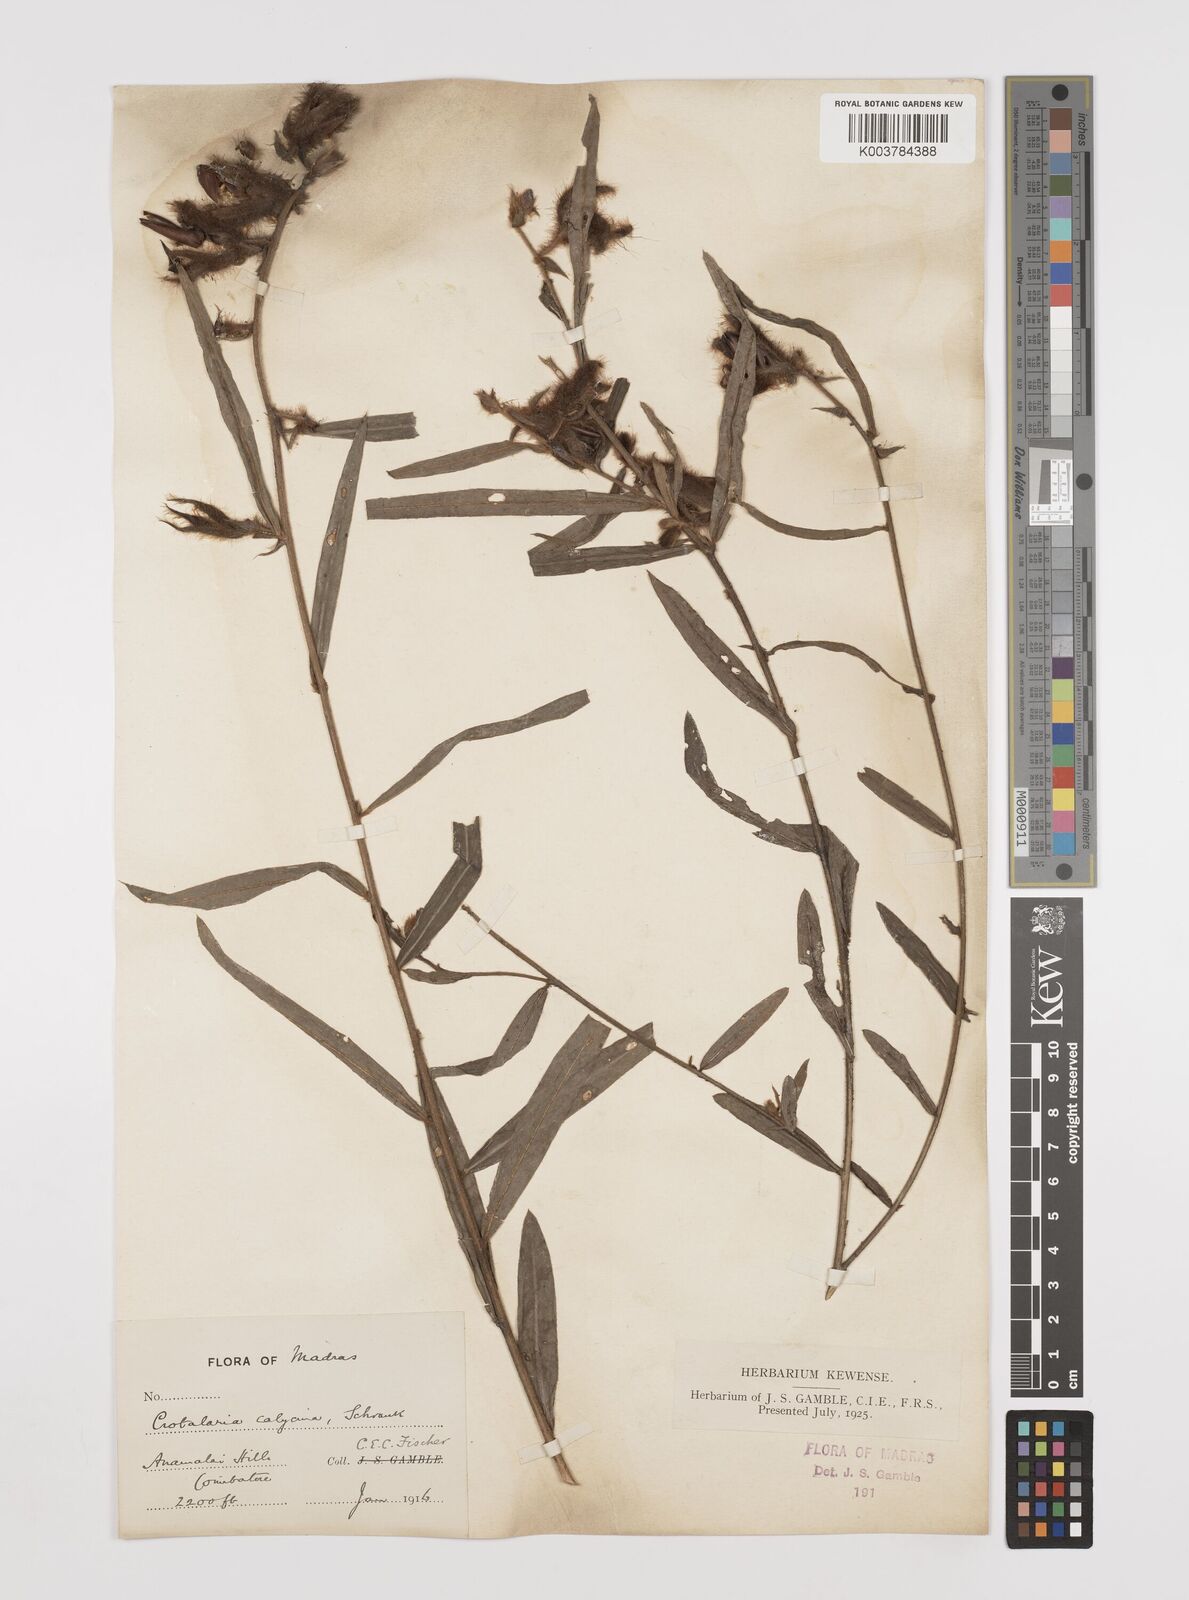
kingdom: Plantae
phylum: Tracheophyta
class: Magnoliopsida
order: Fabales
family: Fabaceae
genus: Crotalaria
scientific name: Crotalaria calycina
